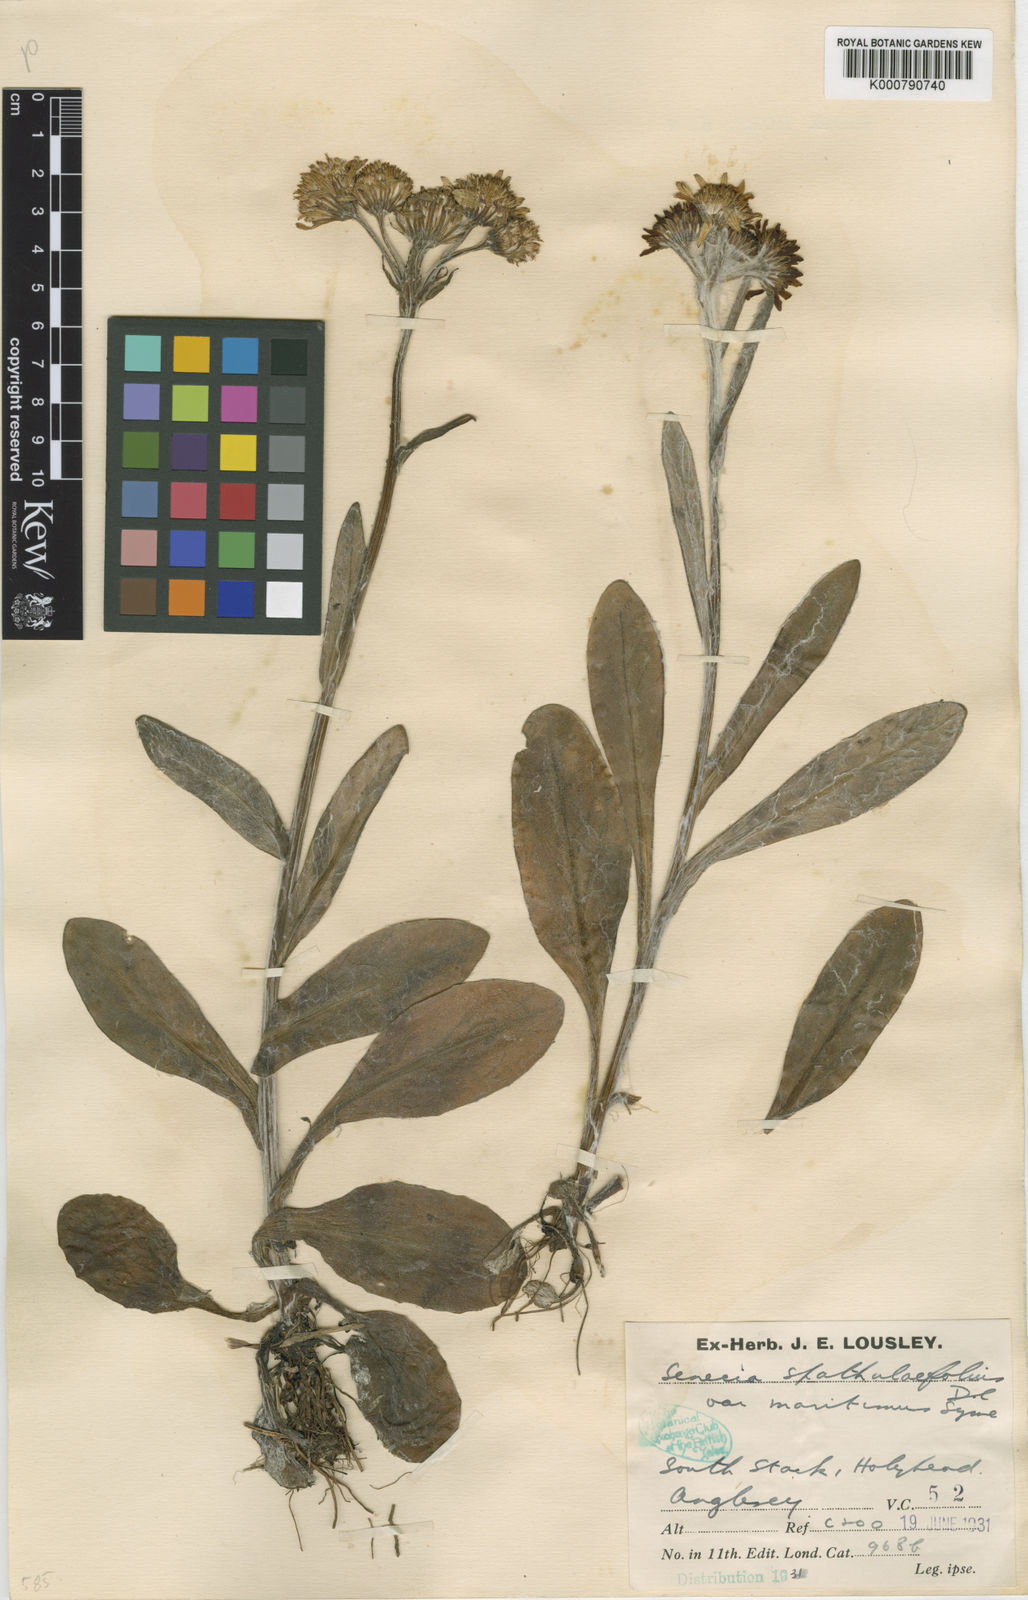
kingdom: Plantae
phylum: Tracheophyta
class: Magnoliopsida
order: Asterales
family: Asteraceae
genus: Tephroseris
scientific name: Tephroseris integrifolia
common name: Field fleawort
